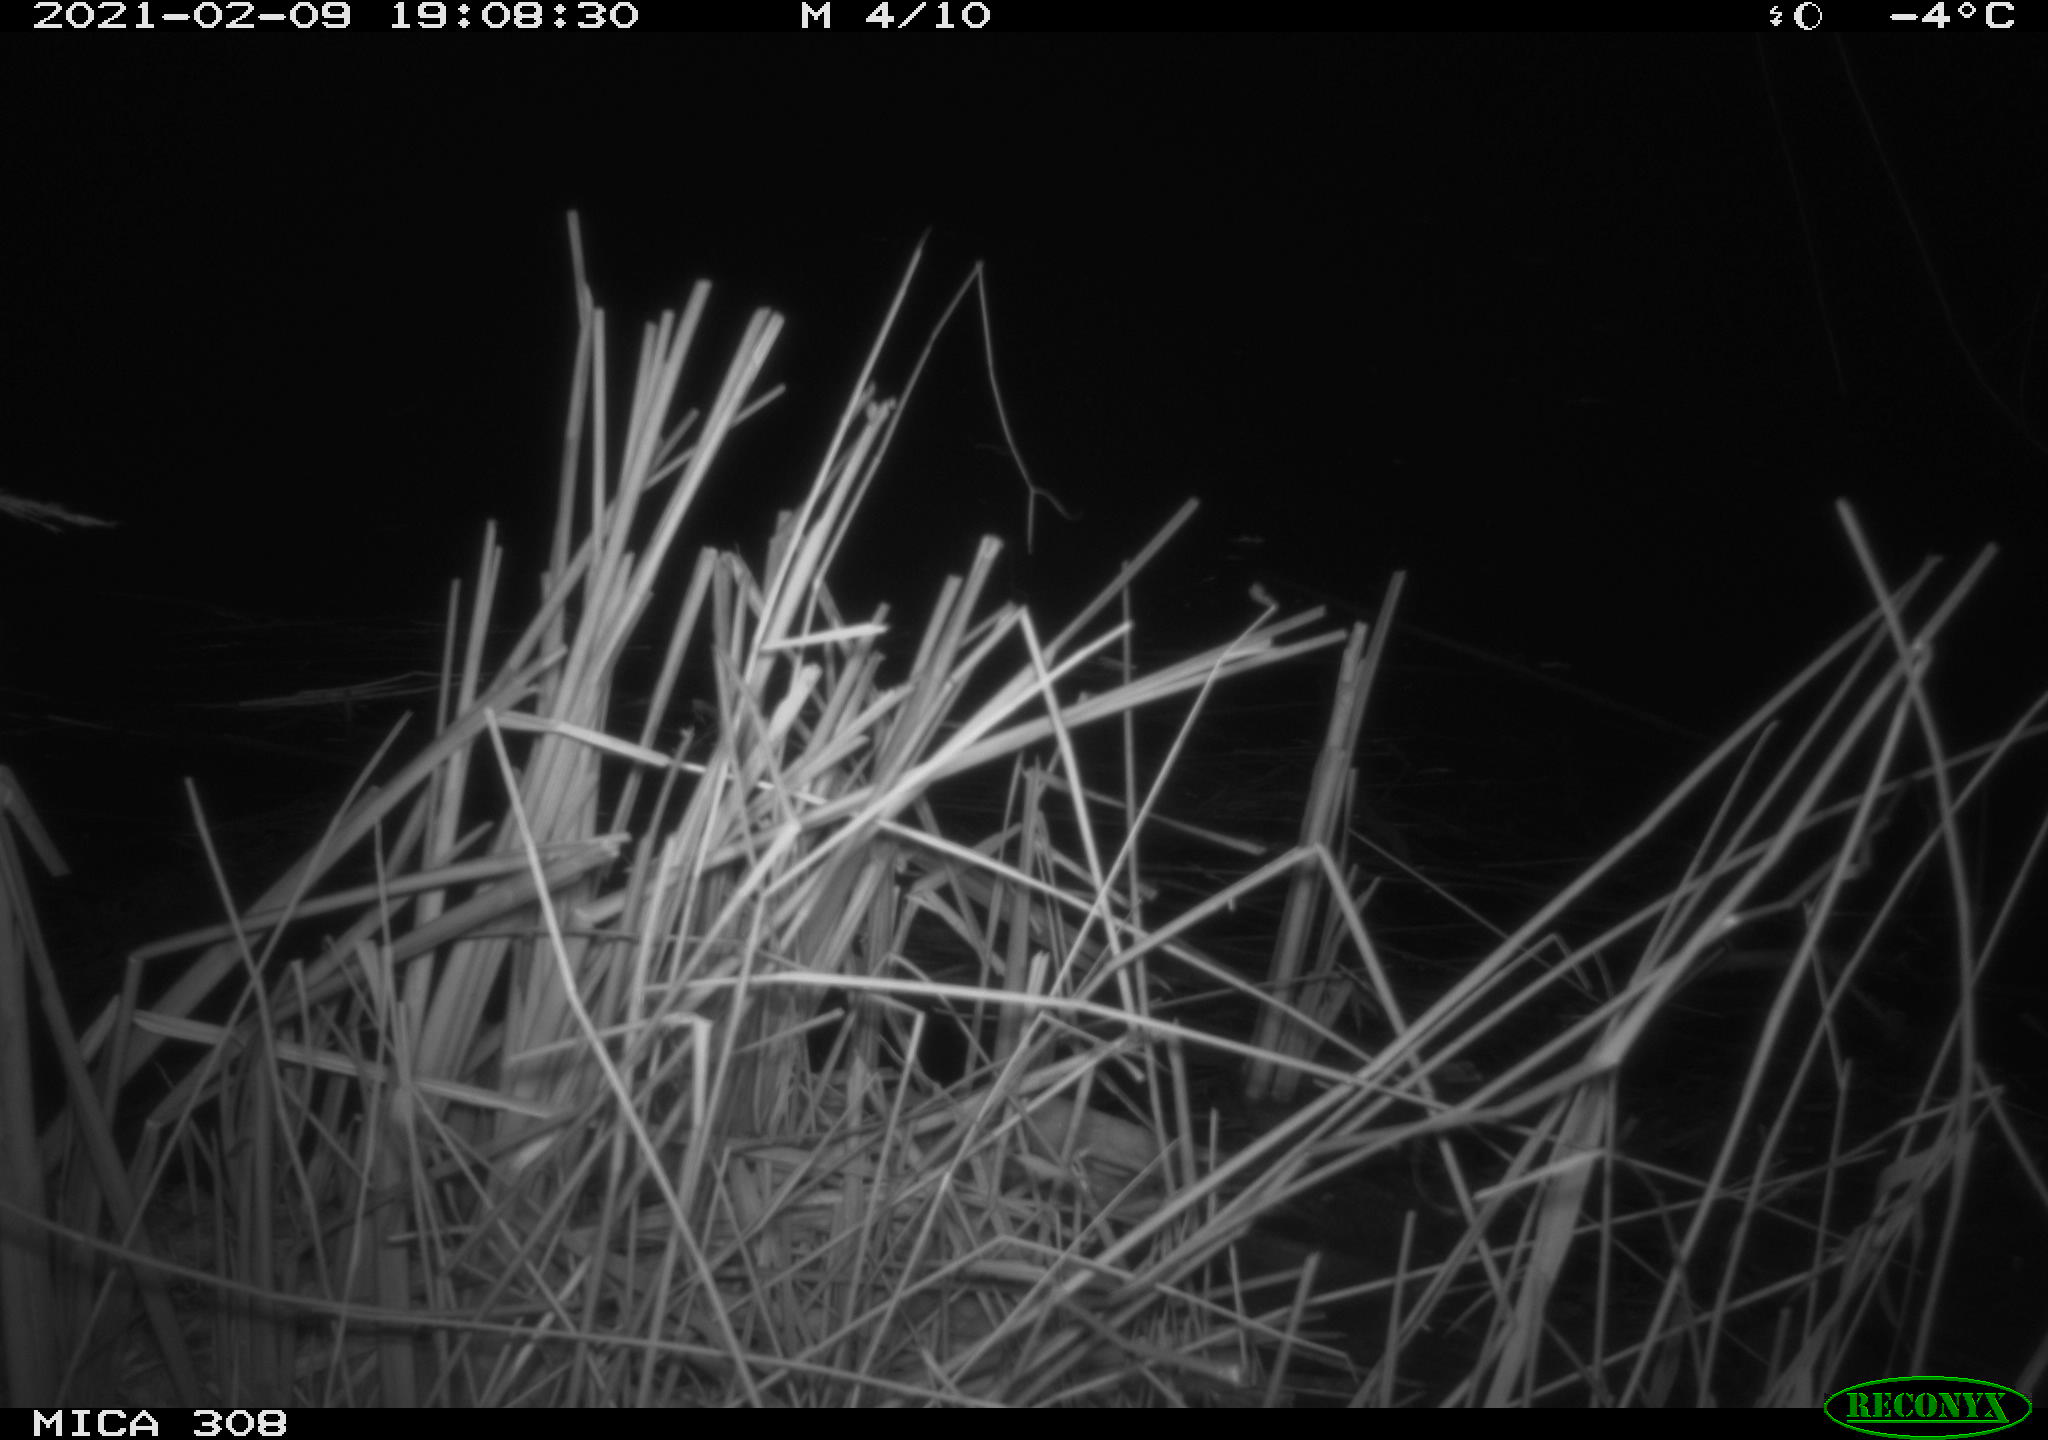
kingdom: Animalia
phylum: Chordata
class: Mammalia
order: Rodentia
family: Muridae
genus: Rattus
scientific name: Rattus norvegicus
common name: Brown rat
